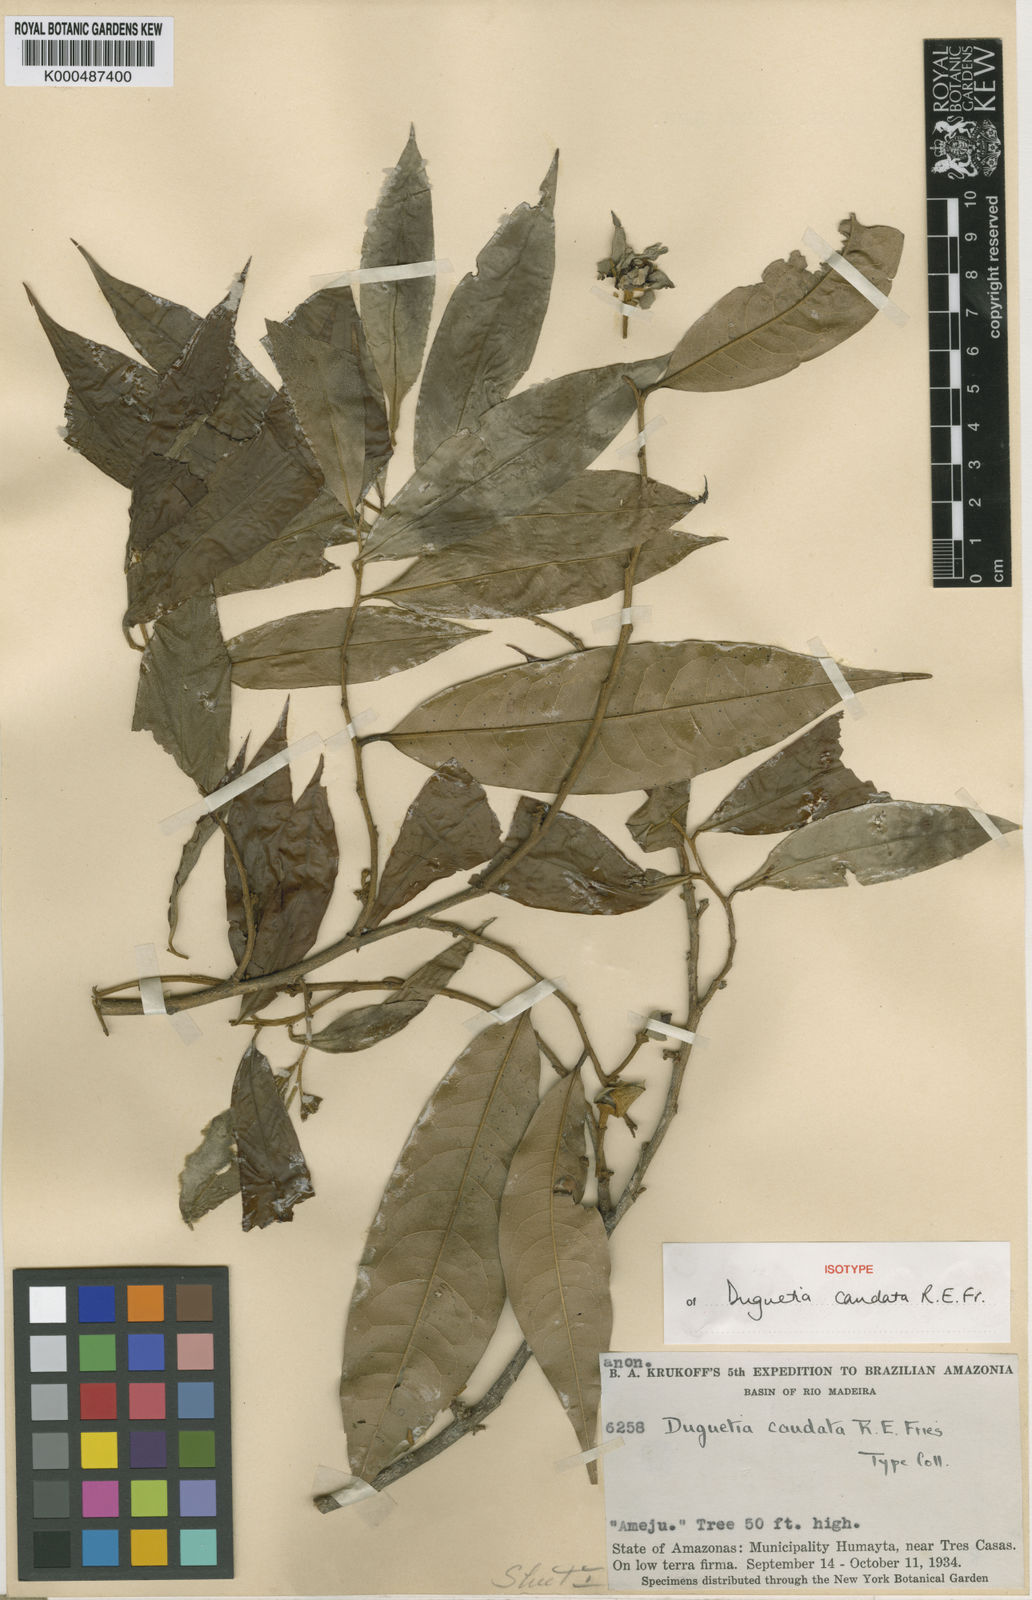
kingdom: Plantae
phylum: Tracheophyta
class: Magnoliopsida
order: Magnoliales
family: Annonaceae
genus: Duguetia
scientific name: Duguetia surinamensis
